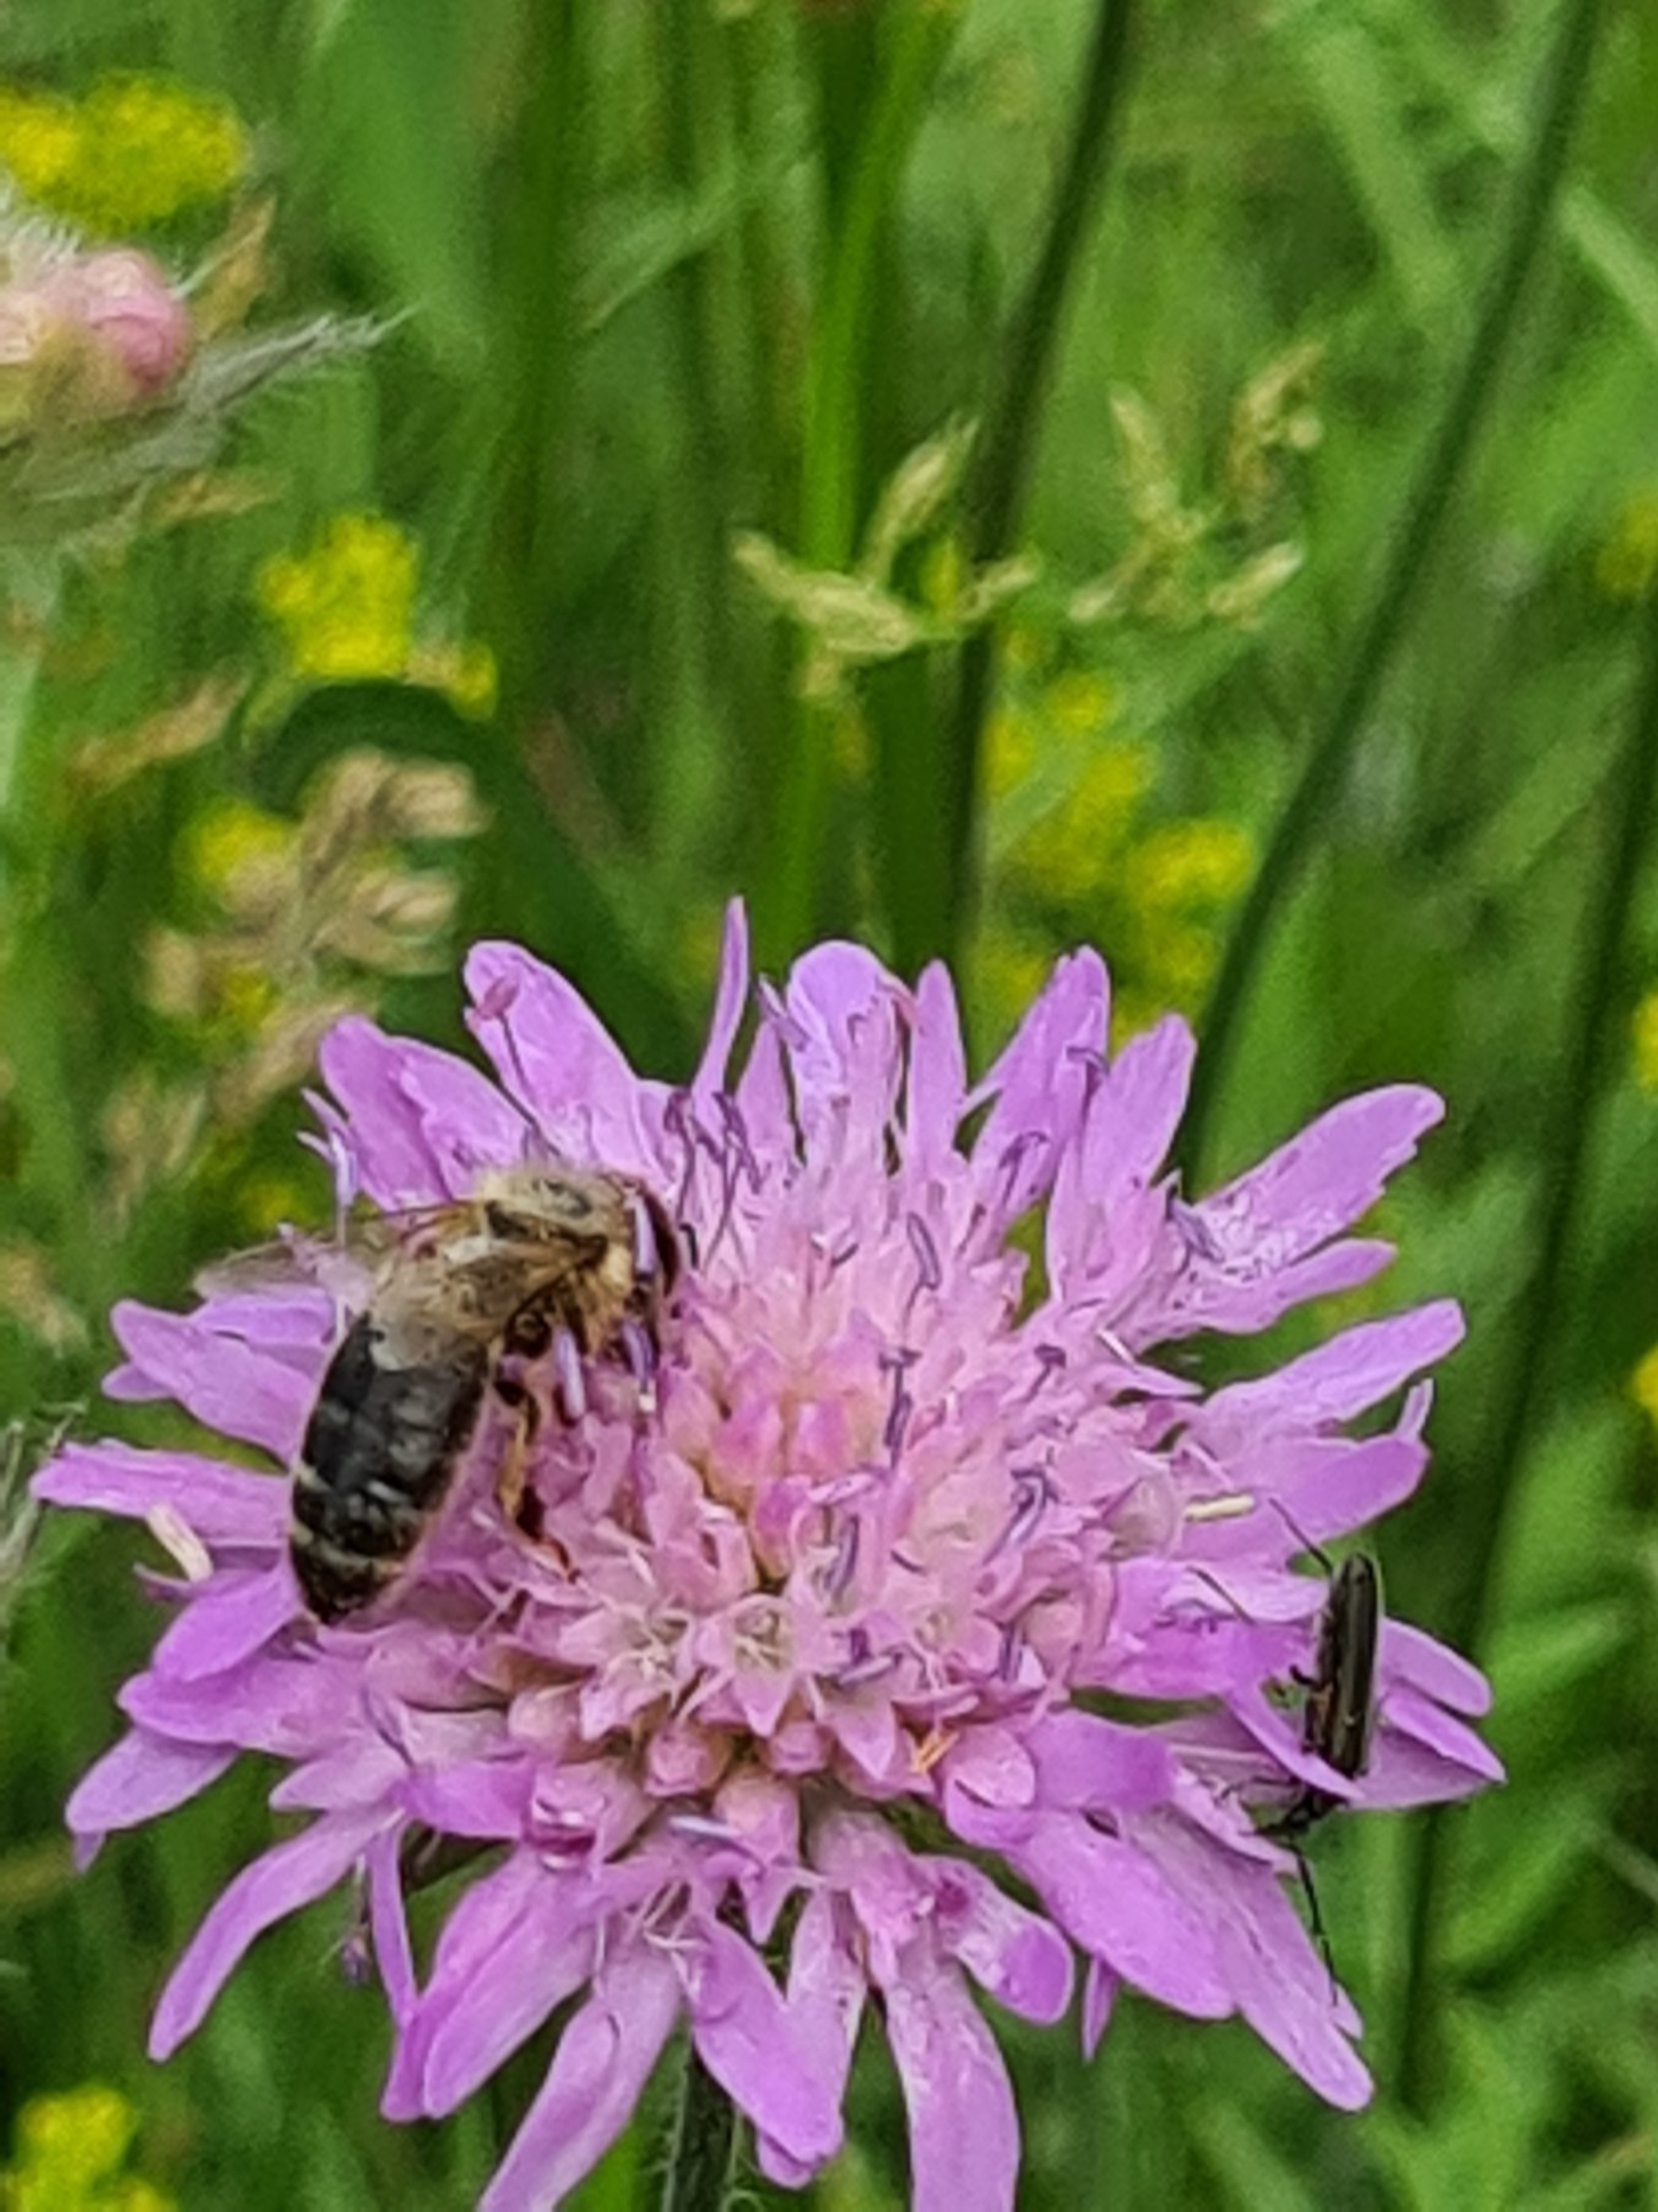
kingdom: Animalia
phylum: Arthropoda
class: Insecta
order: Hymenoptera
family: Apidae
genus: Apis
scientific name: Apis mellifera
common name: Honningbi
